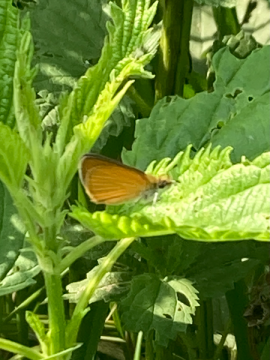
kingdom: Animalia
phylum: Arthropoda
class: Insecta
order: Lepidoptera
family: Hesperiidae
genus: Ancyloxypha
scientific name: Ancyloxypha numitor
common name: Least Skipper
